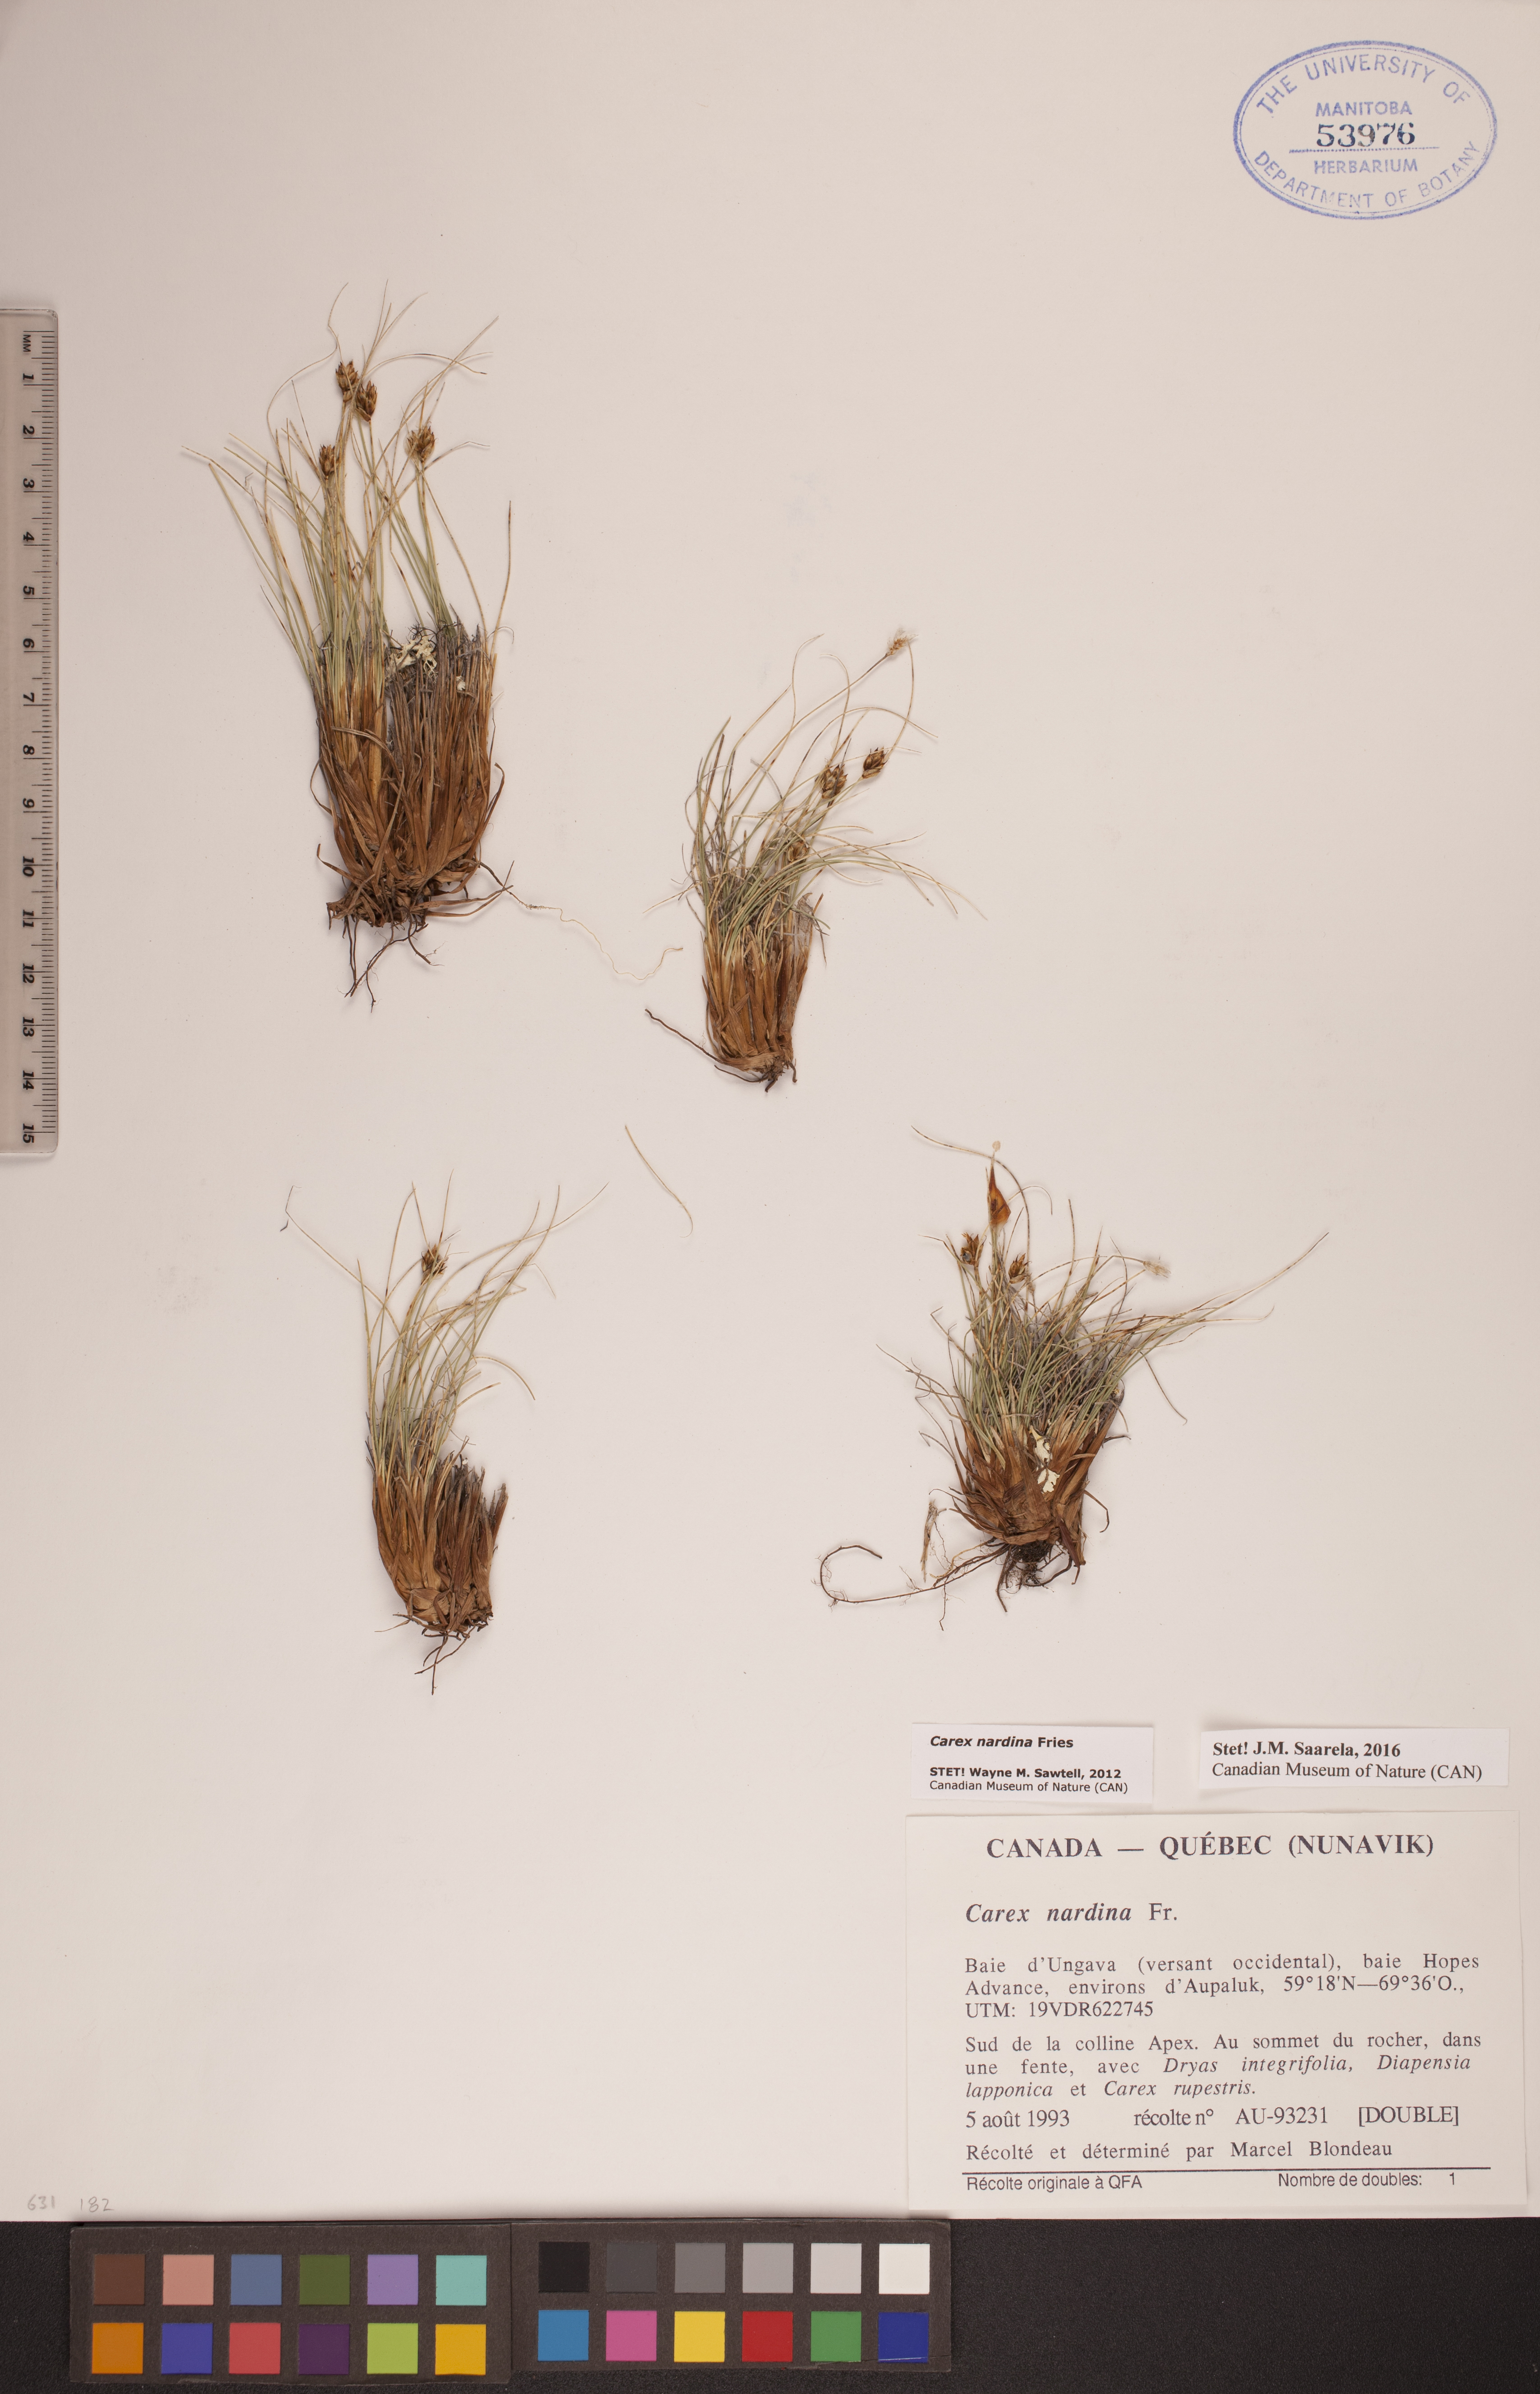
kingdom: Plantae
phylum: Tracheophyta
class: Liliopsida
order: Poales
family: Cyperaceae
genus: Carex
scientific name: Carex nardina
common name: Nard sedge
